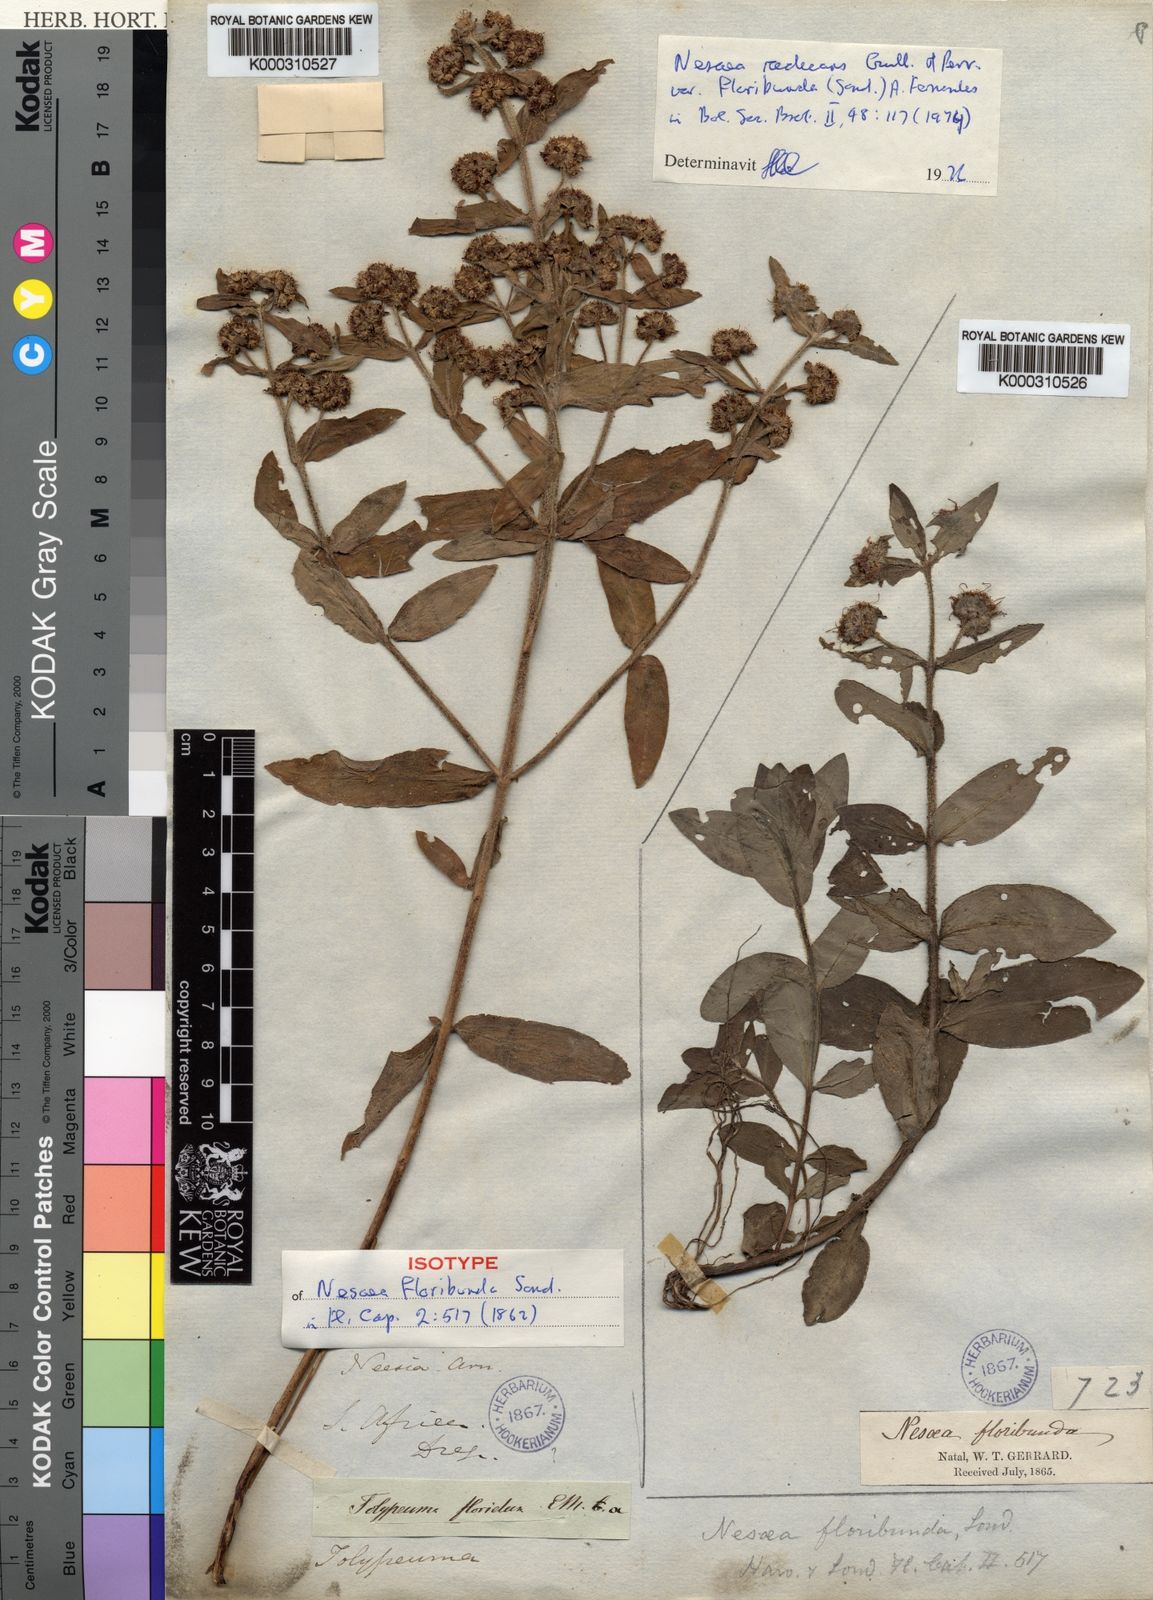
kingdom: Plantae
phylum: Tracheophyta
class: Magnoliopsida
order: Myrtales
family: Lythraceae
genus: Ammannia
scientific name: Ammannia radicans
